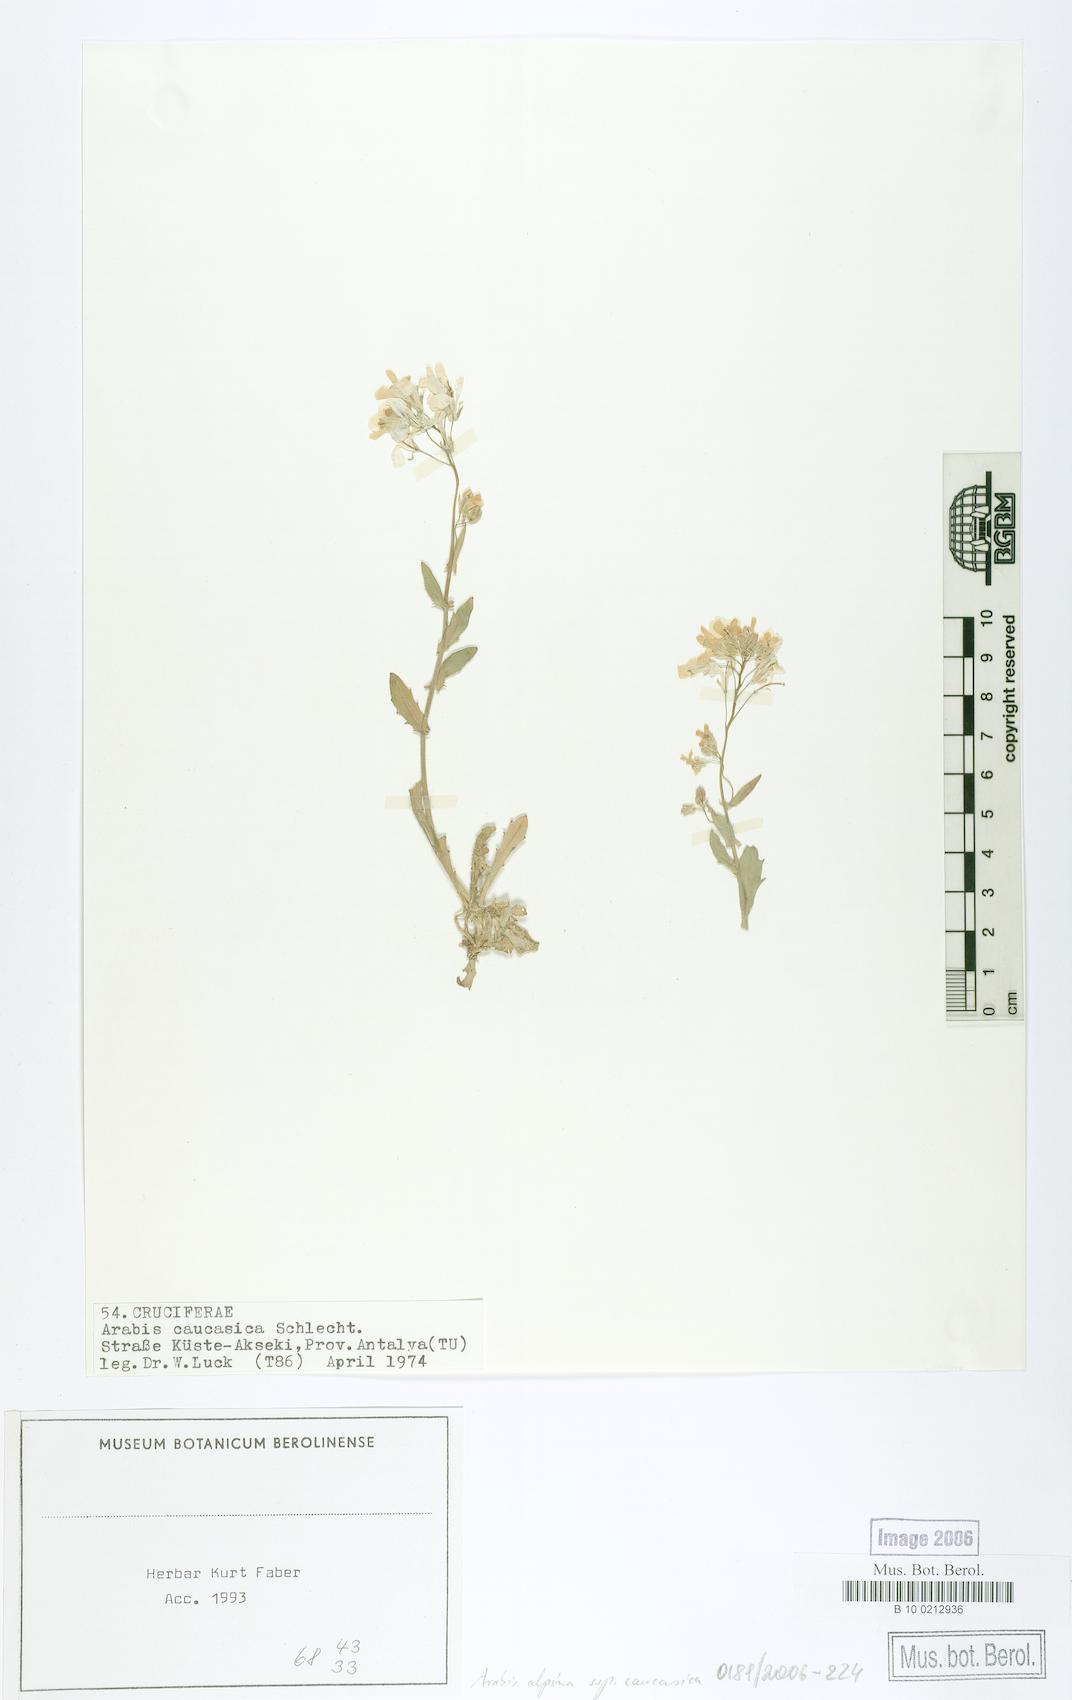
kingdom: Plantae
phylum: Tracheophyta
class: Magnoliopsida
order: Brassicales
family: Brassicaceae
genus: Arabis
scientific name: Arabis caucasica
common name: Gray rockcress
